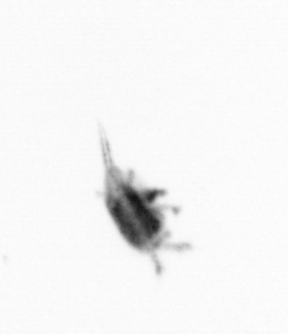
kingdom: Animalia
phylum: Arthropoda
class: Copepoda
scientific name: Copepoda
